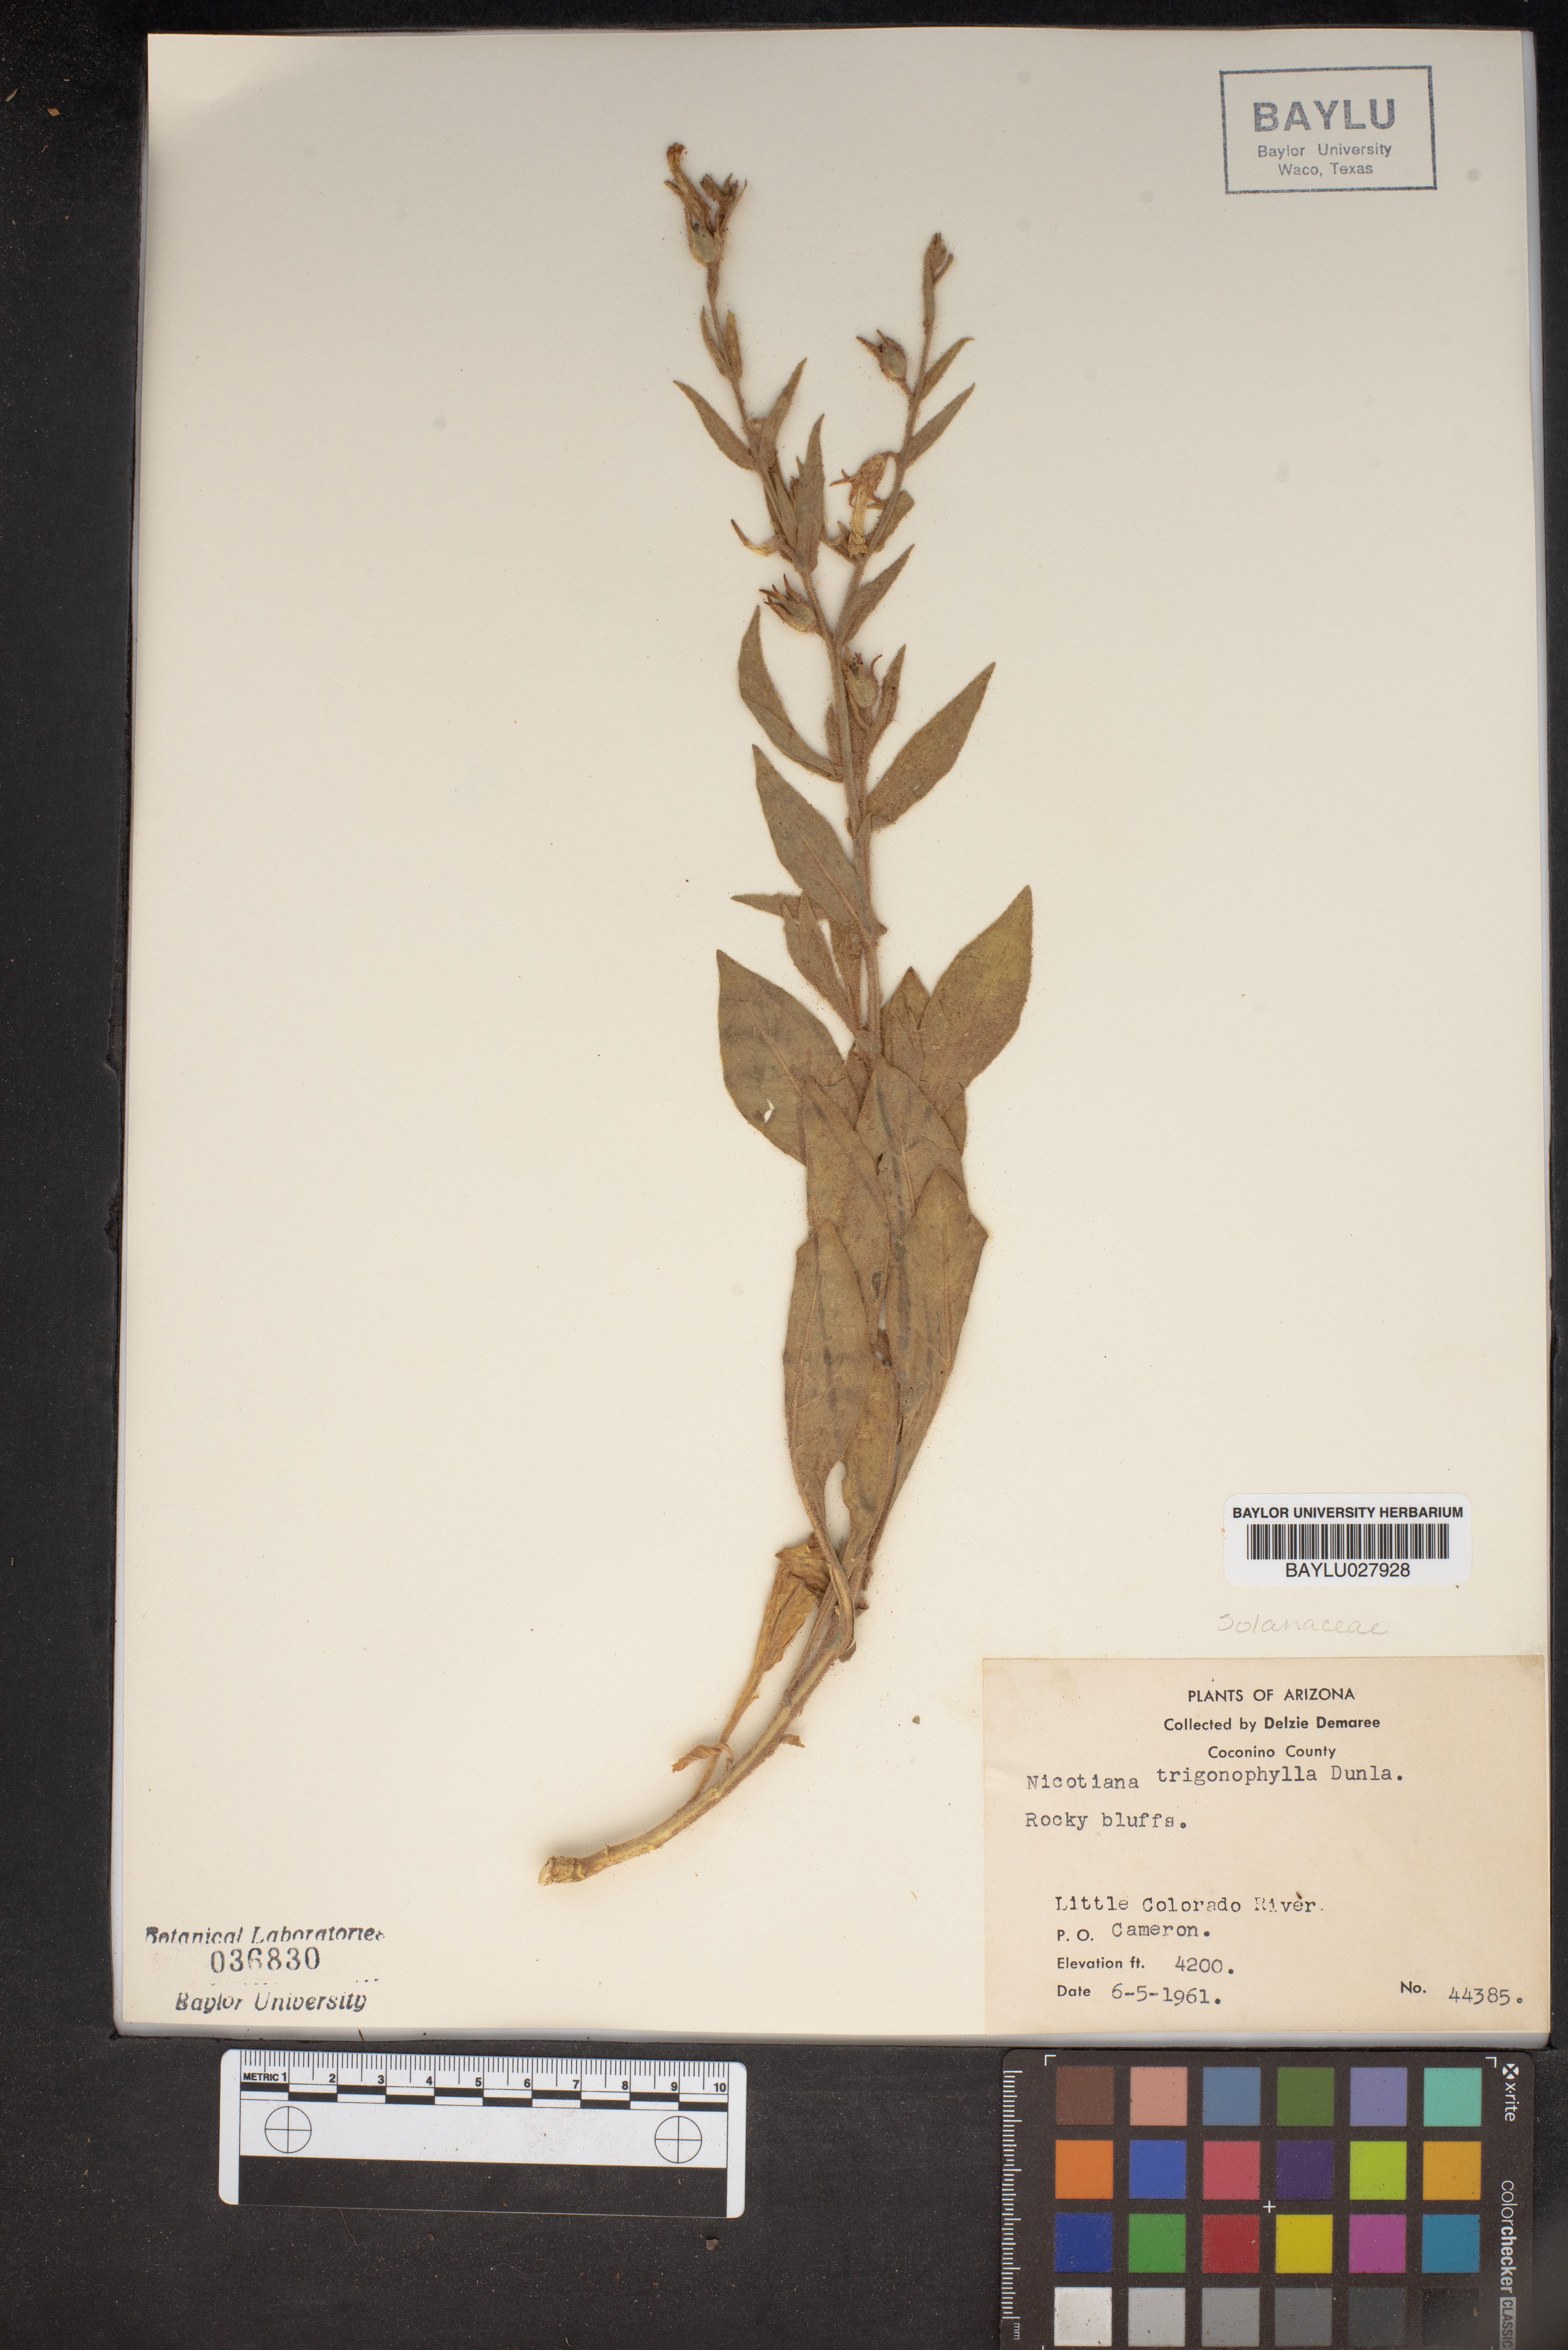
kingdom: Plantae
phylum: Tracheophyta
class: Magnoliopsida
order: Solanales
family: Solanaceae
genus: Nicotiana
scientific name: Nicotiana obtusifolia
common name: Desert tobacco
